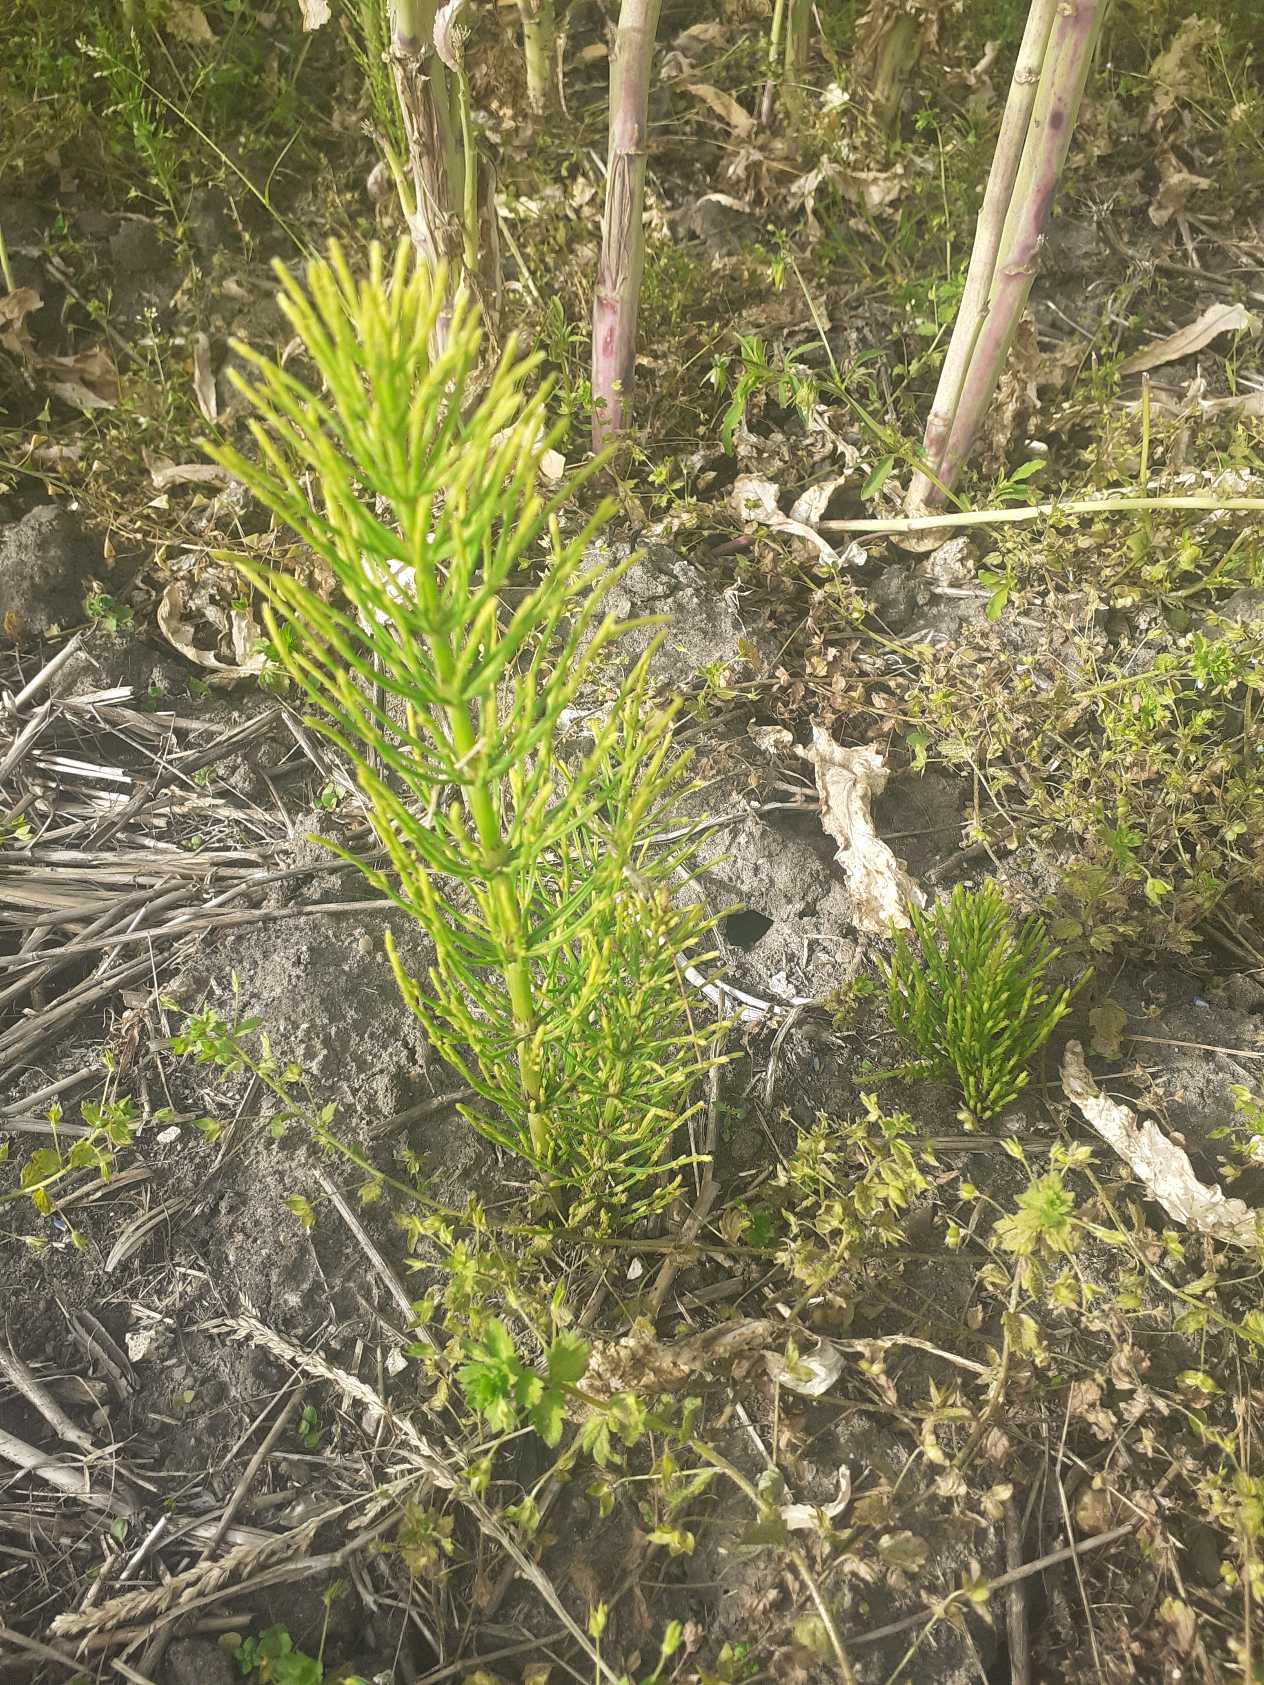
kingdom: Plantae
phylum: Tracheophyta
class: Polypodiopsida
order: Equisetales
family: Equisetaceae
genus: Equisetum
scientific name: Equisetum arvense
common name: Ager-padderok
